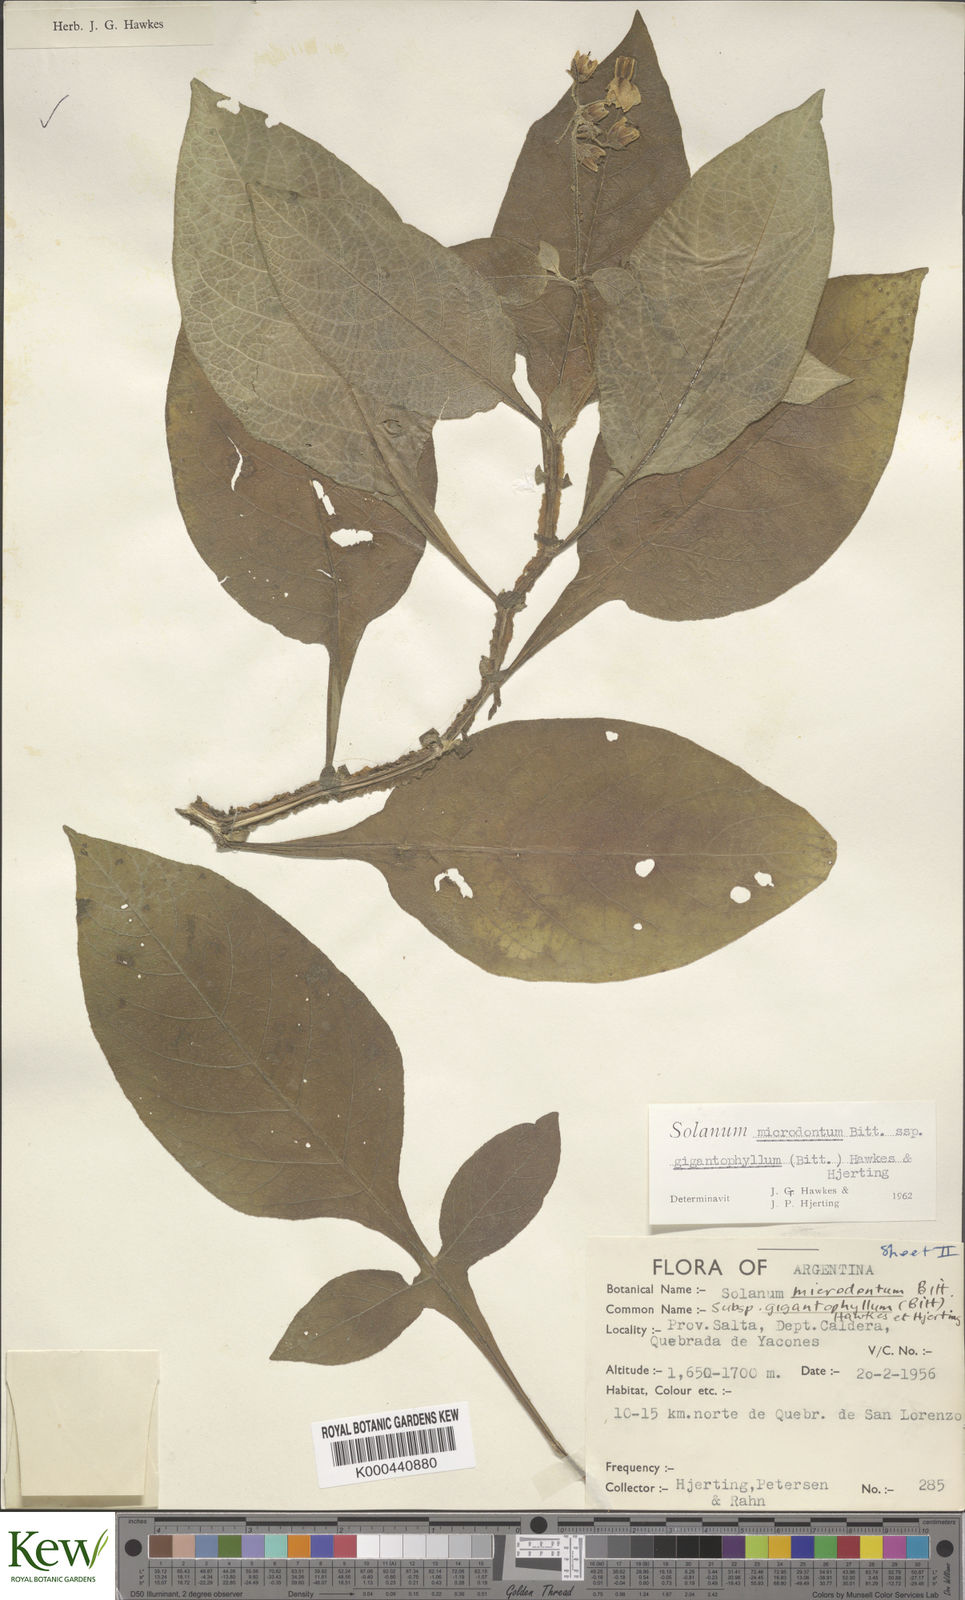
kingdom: Plantae
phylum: Tracheophyta
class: Magnoliopsida
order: Solanales
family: Solanaceae
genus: Solanum
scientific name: Solanum microdontum
